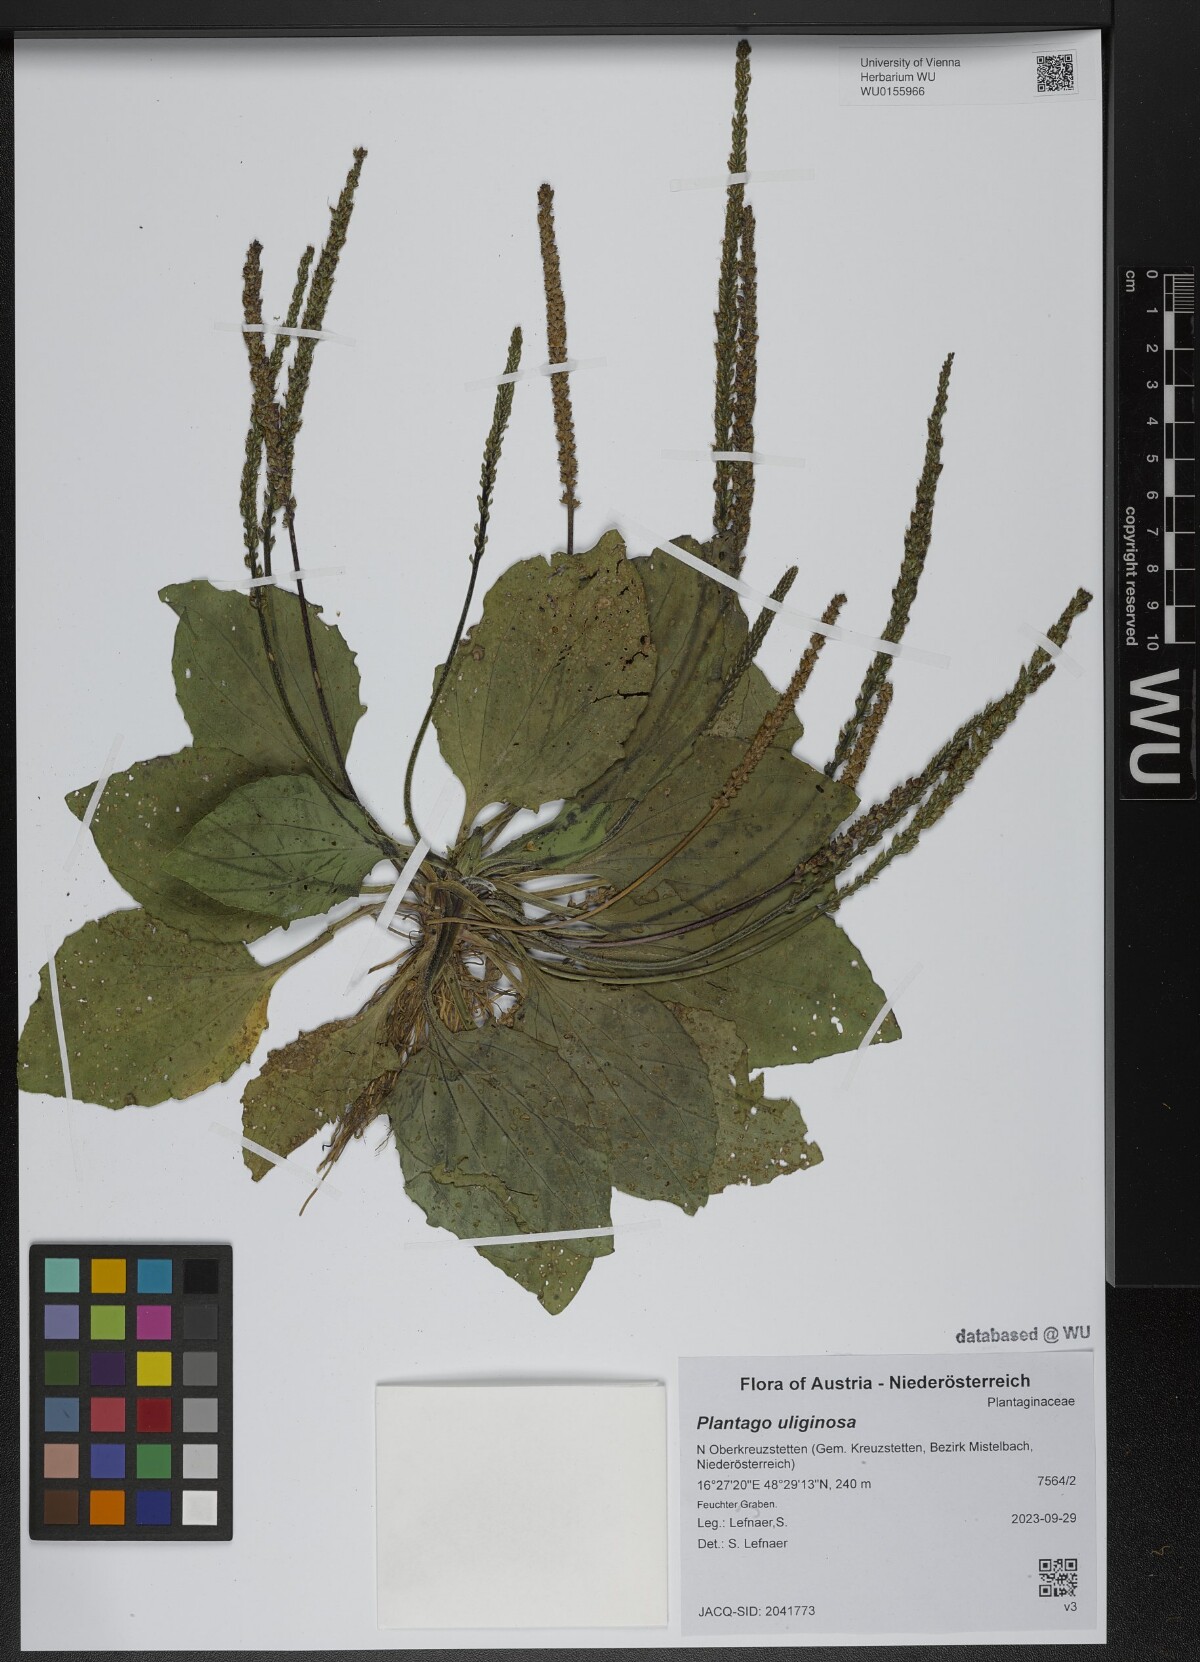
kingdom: Plantae
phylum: Tracheophyta
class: Magnoliopsida
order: Lamiales
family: Plantaginaceae
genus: Plantago
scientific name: Plantago uliginosa
